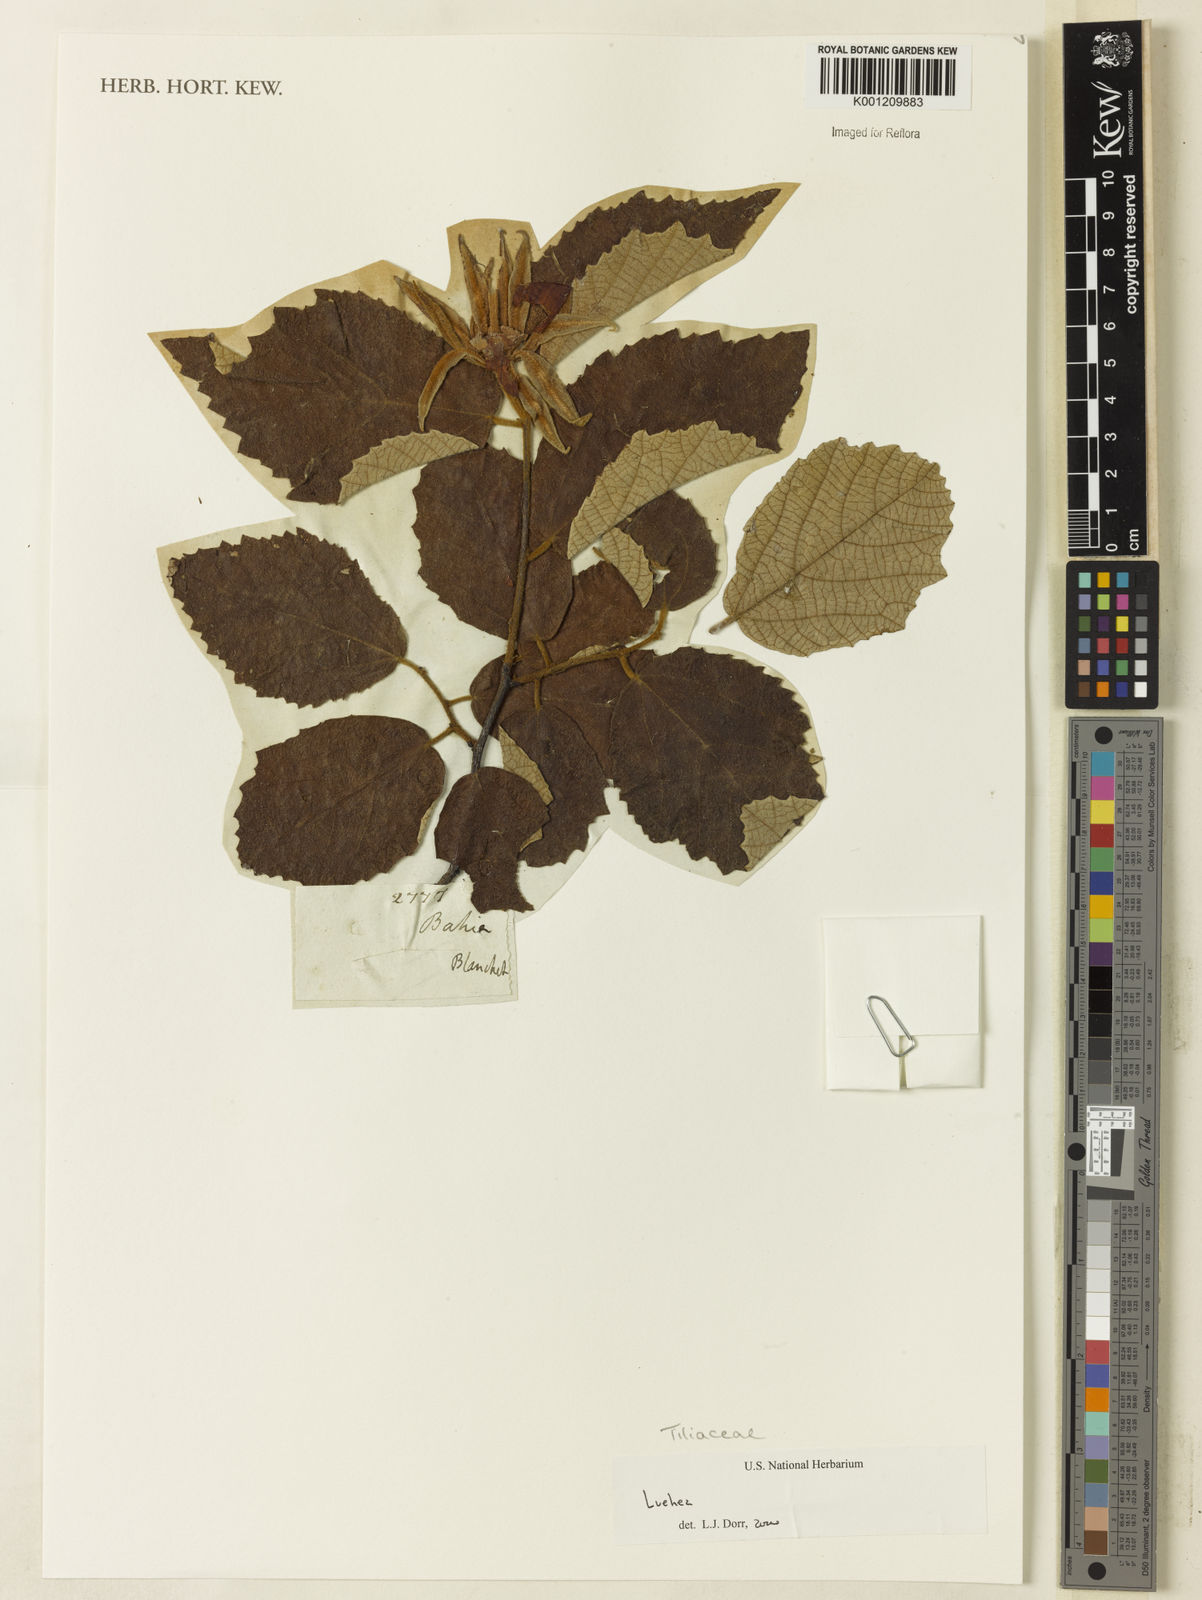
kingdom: Plantae
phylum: Tracheophyta
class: Magnoliopsida
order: Malvales
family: Malvaceae
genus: Luehea
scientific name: Luehea
